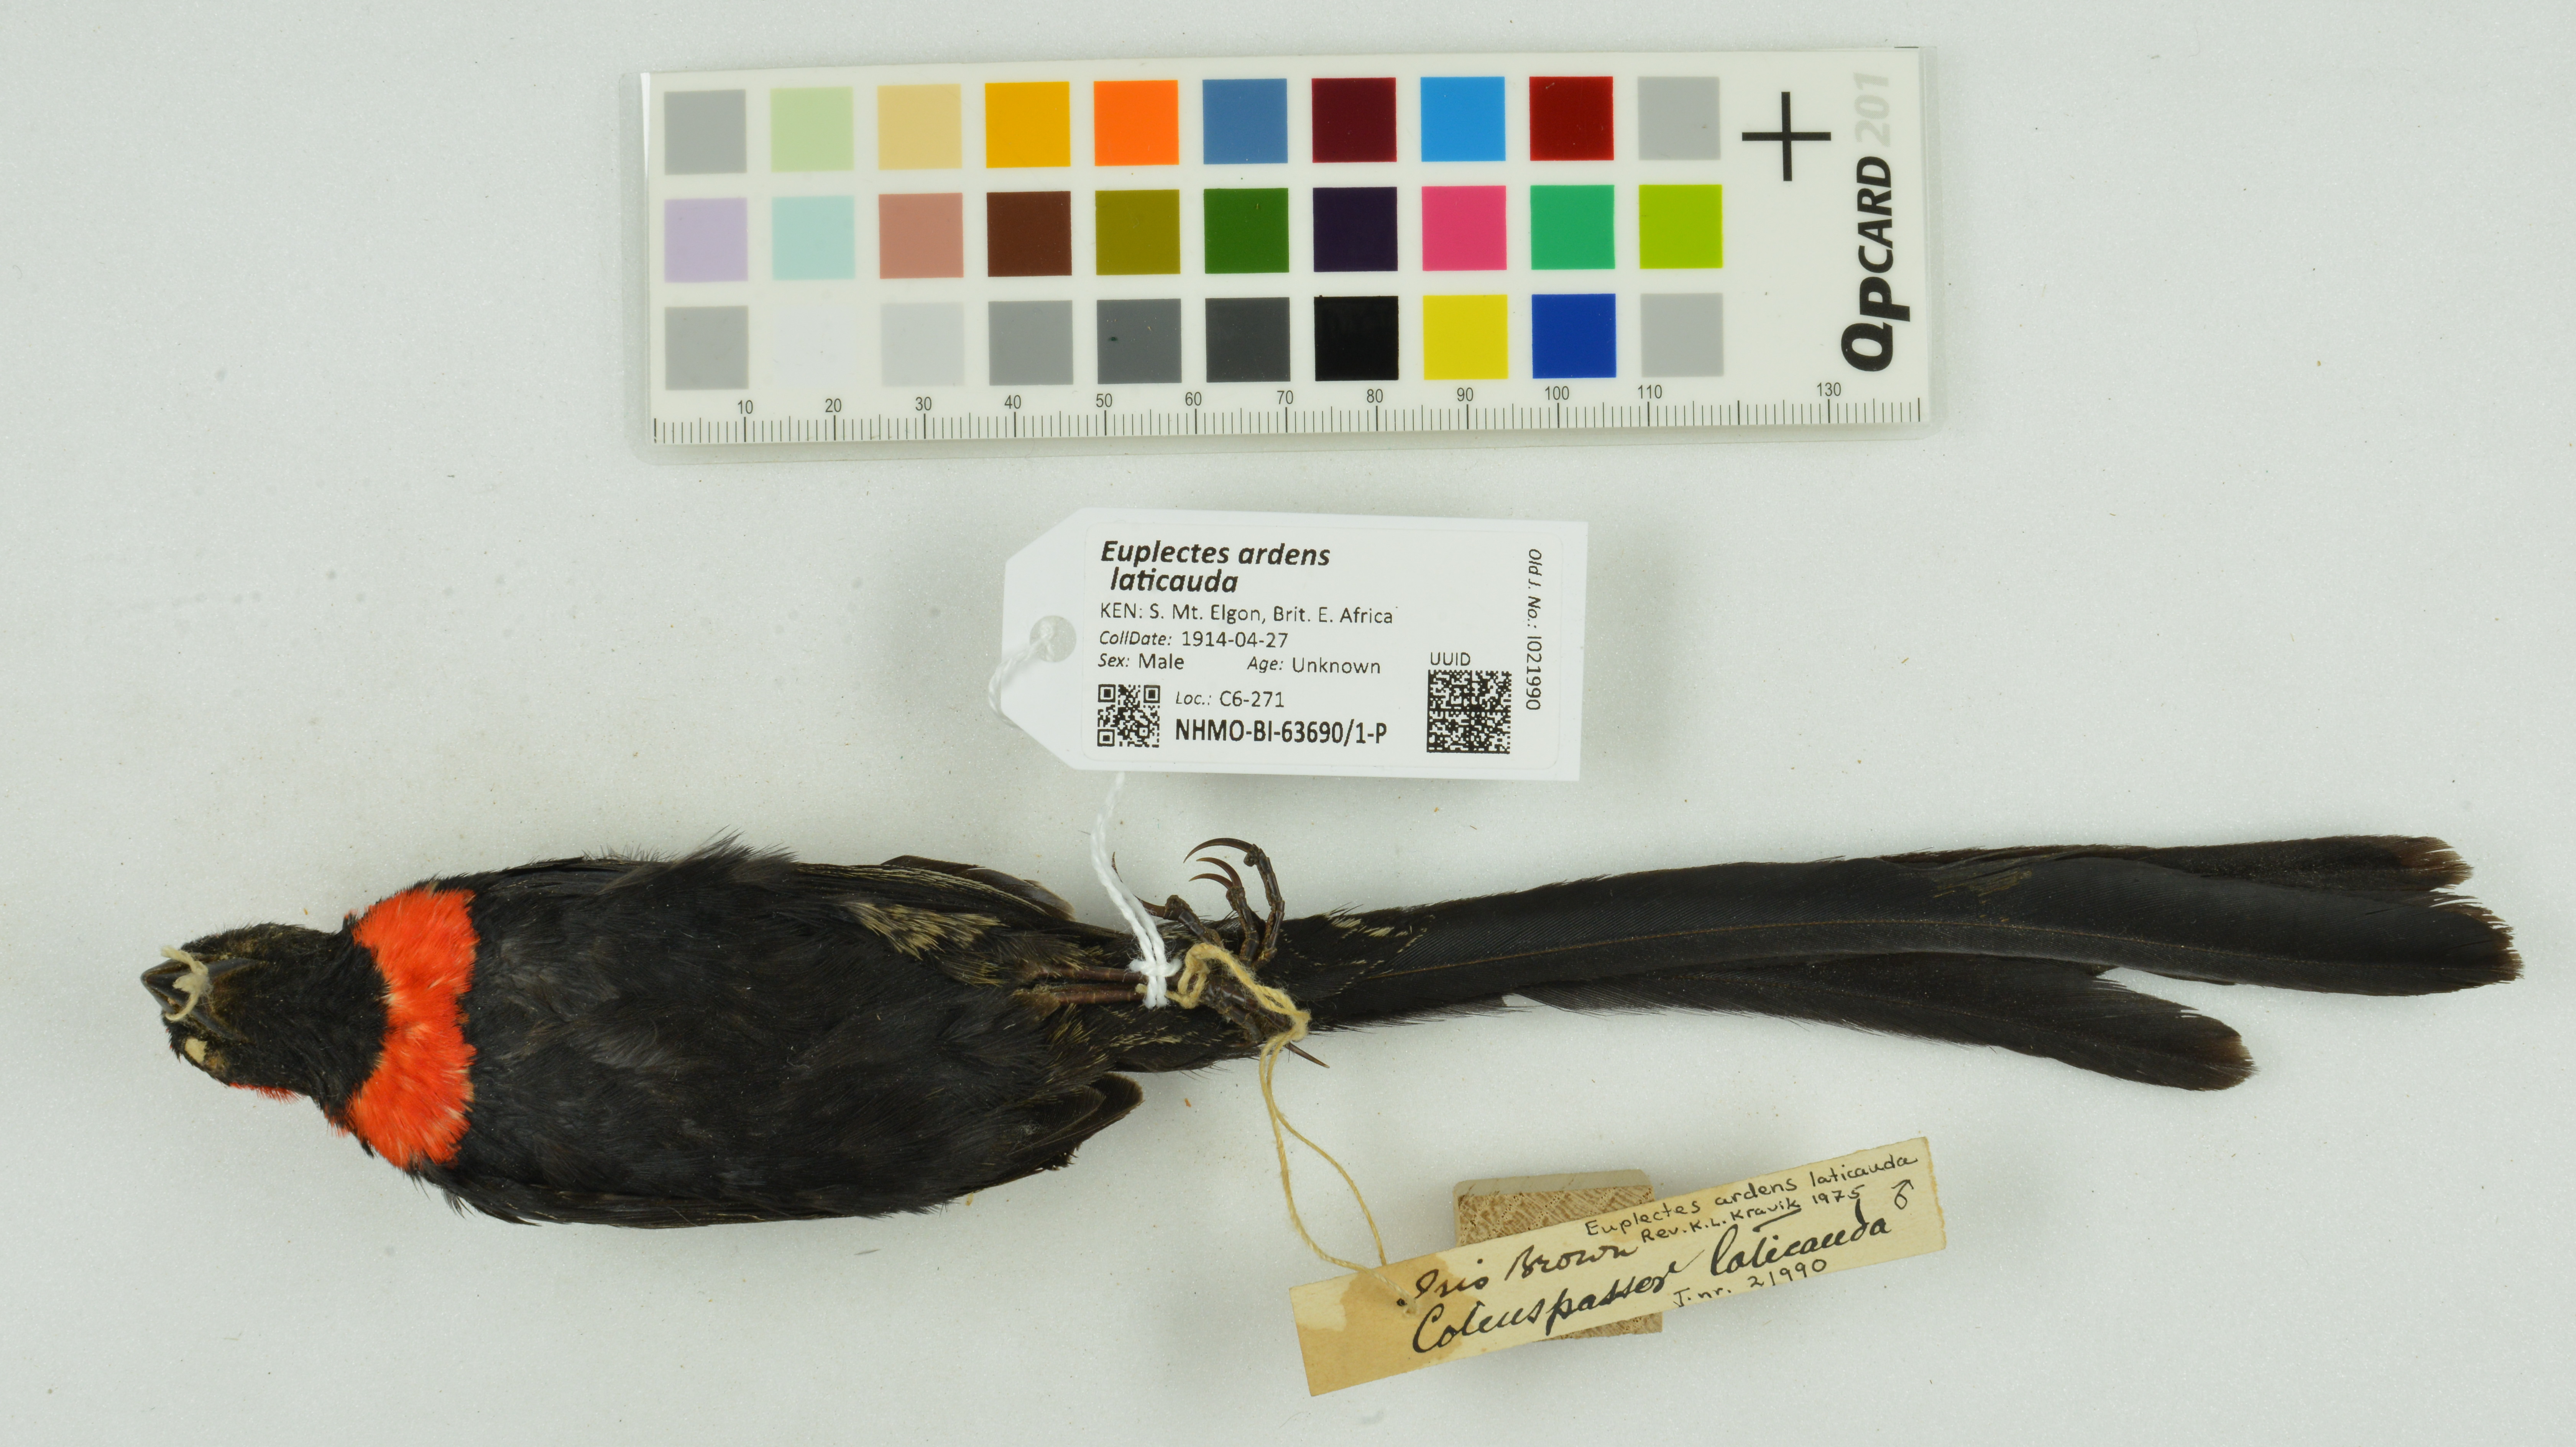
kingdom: Animalia
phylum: Chordata
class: Aves
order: Passeriformes
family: Ploceidae
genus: Euplectes
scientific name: Euplectes ardens
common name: Red-collared widowbird
